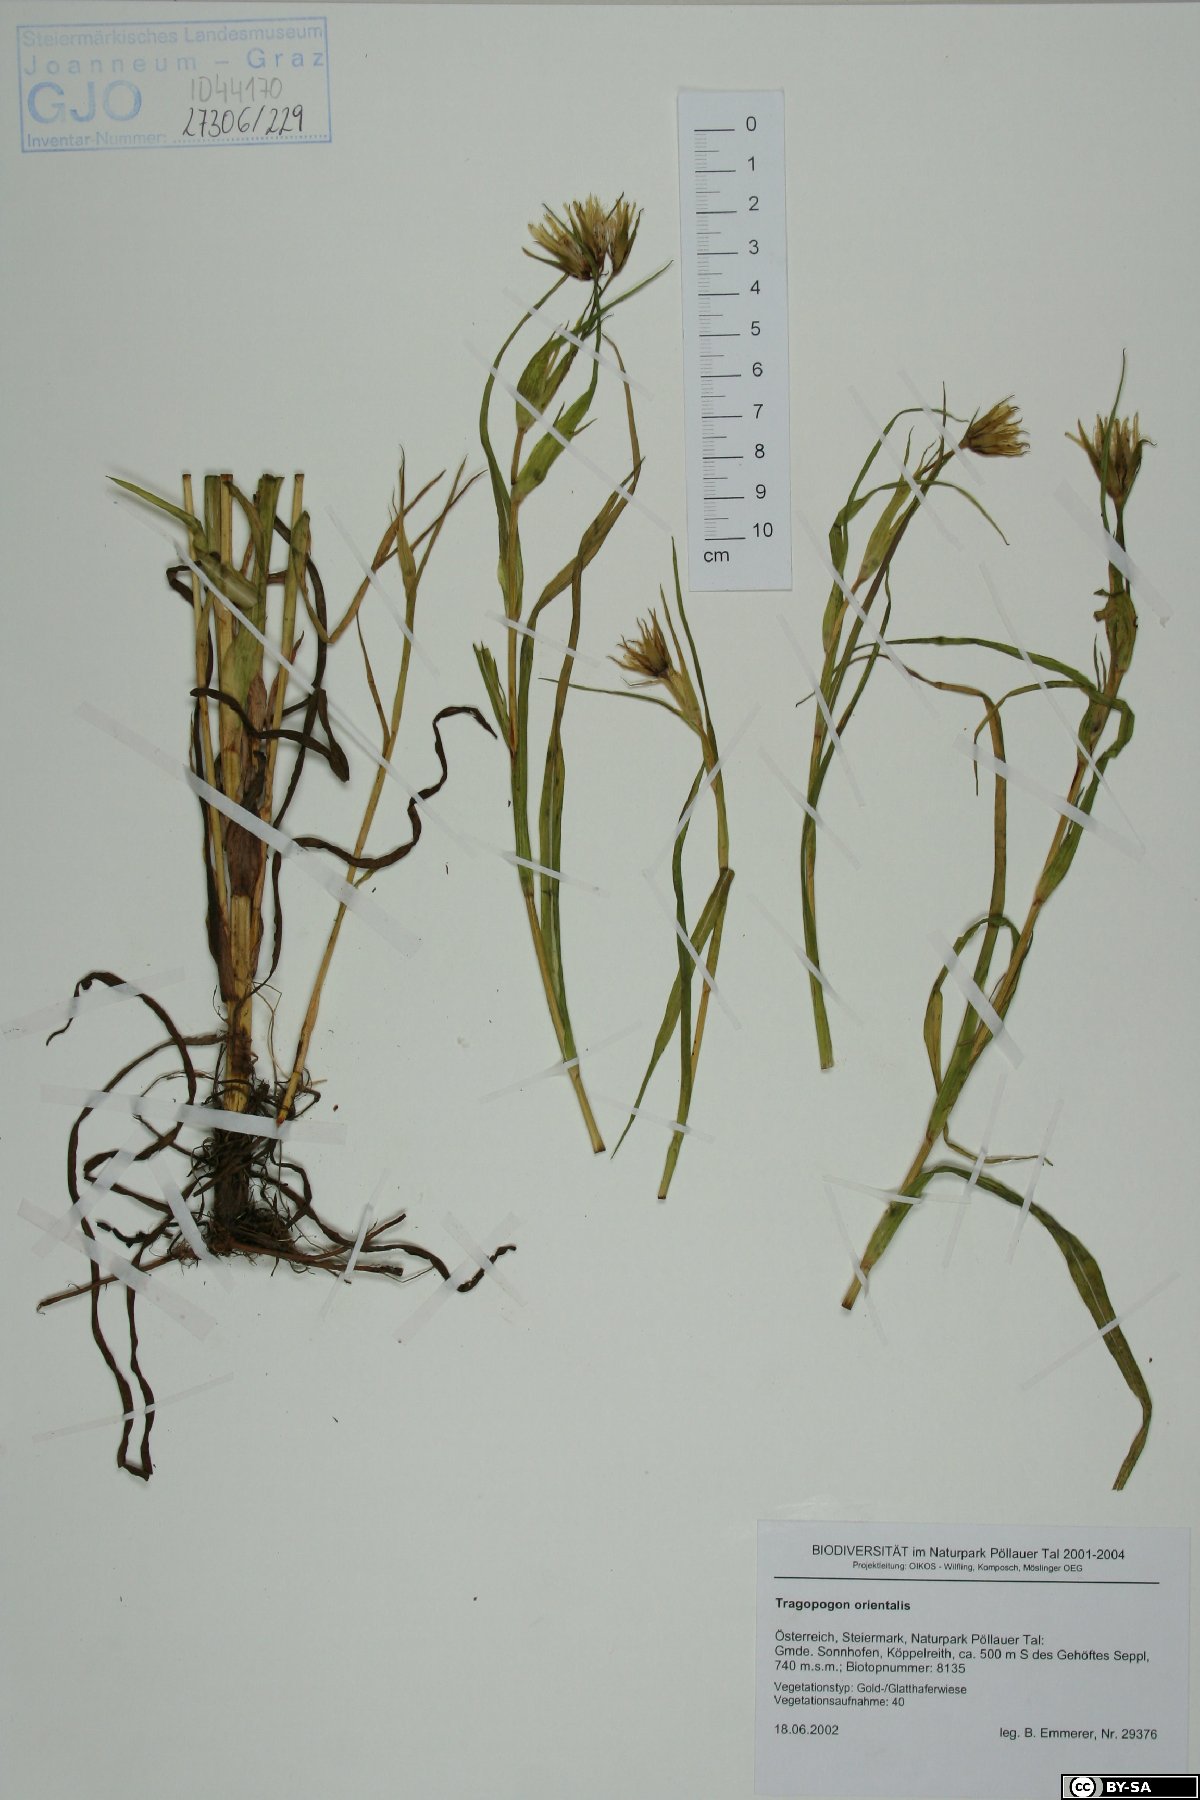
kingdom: Plantae
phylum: Tracheophyta
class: Magnoliopsida
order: Asterales
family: Asteraceae
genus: Tragopogon
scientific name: Tragopogon orientalis
